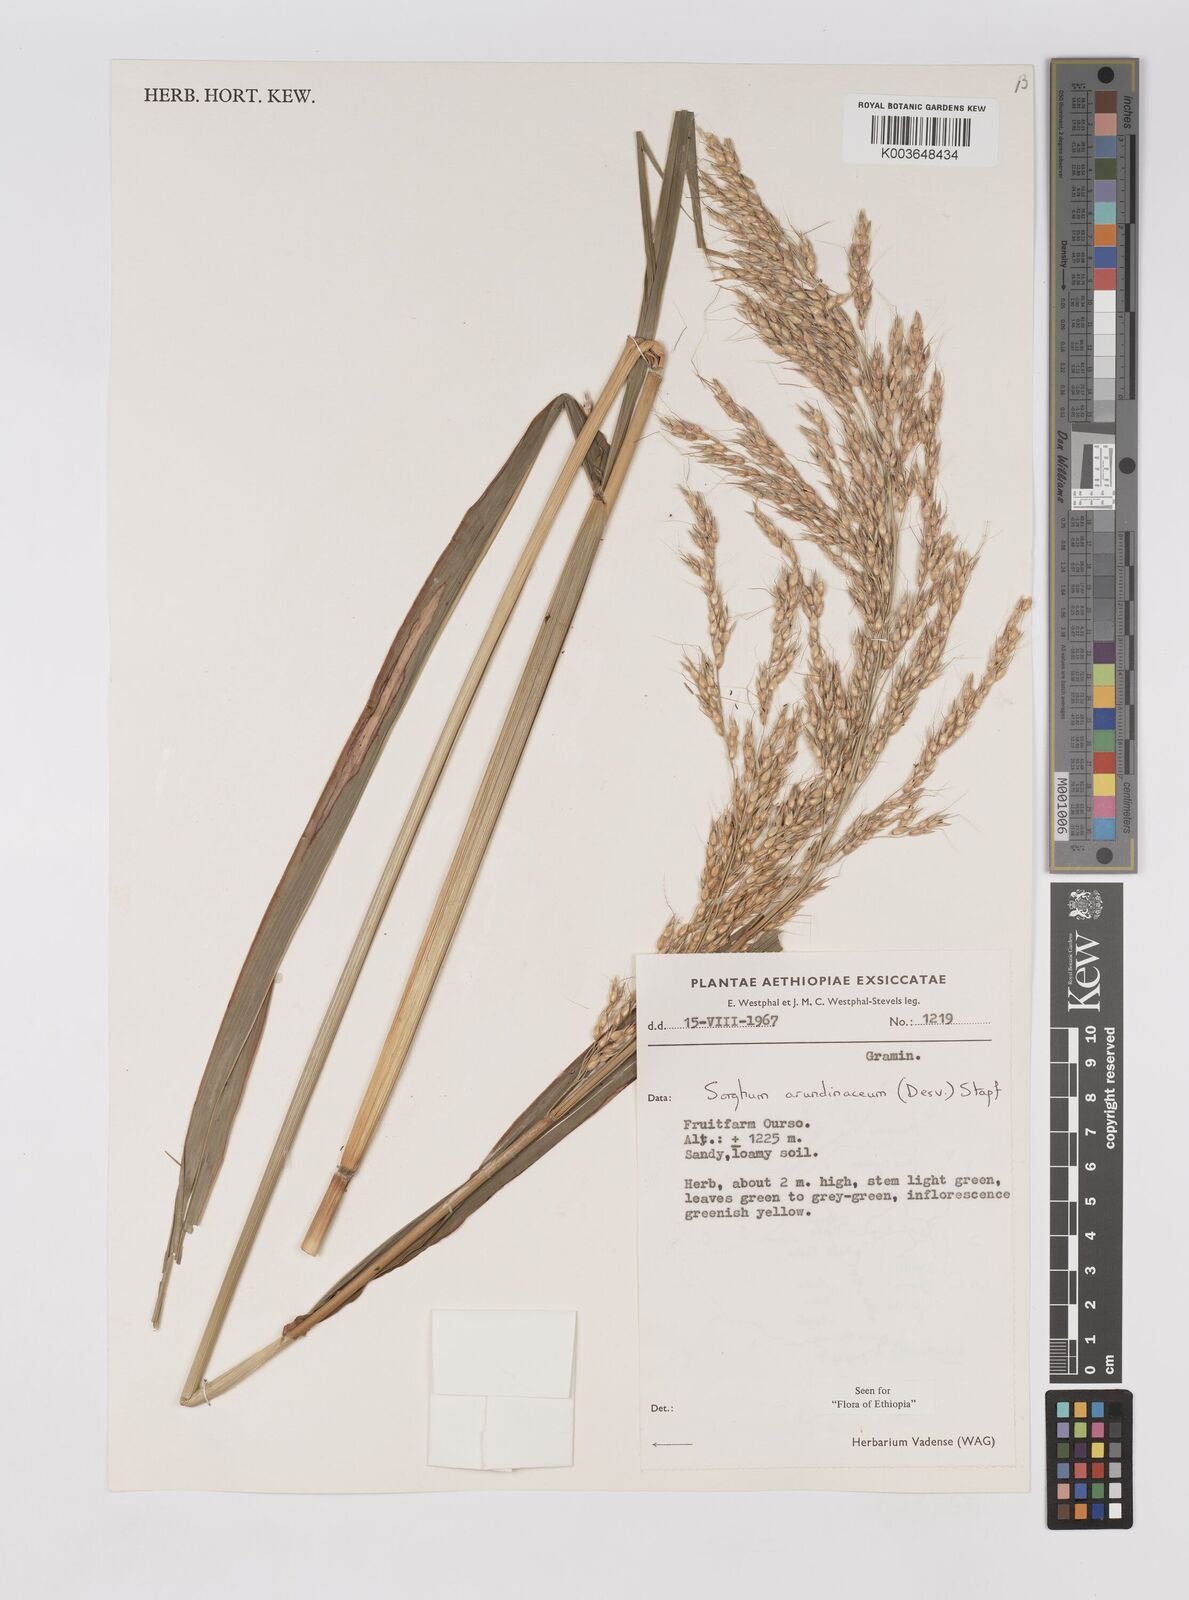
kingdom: Plantae
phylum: Tracheophyta
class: Liliopsida
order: Poales
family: Poaceae
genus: Sorghum
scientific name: Sorghum arundinaceum
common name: Sorghum
